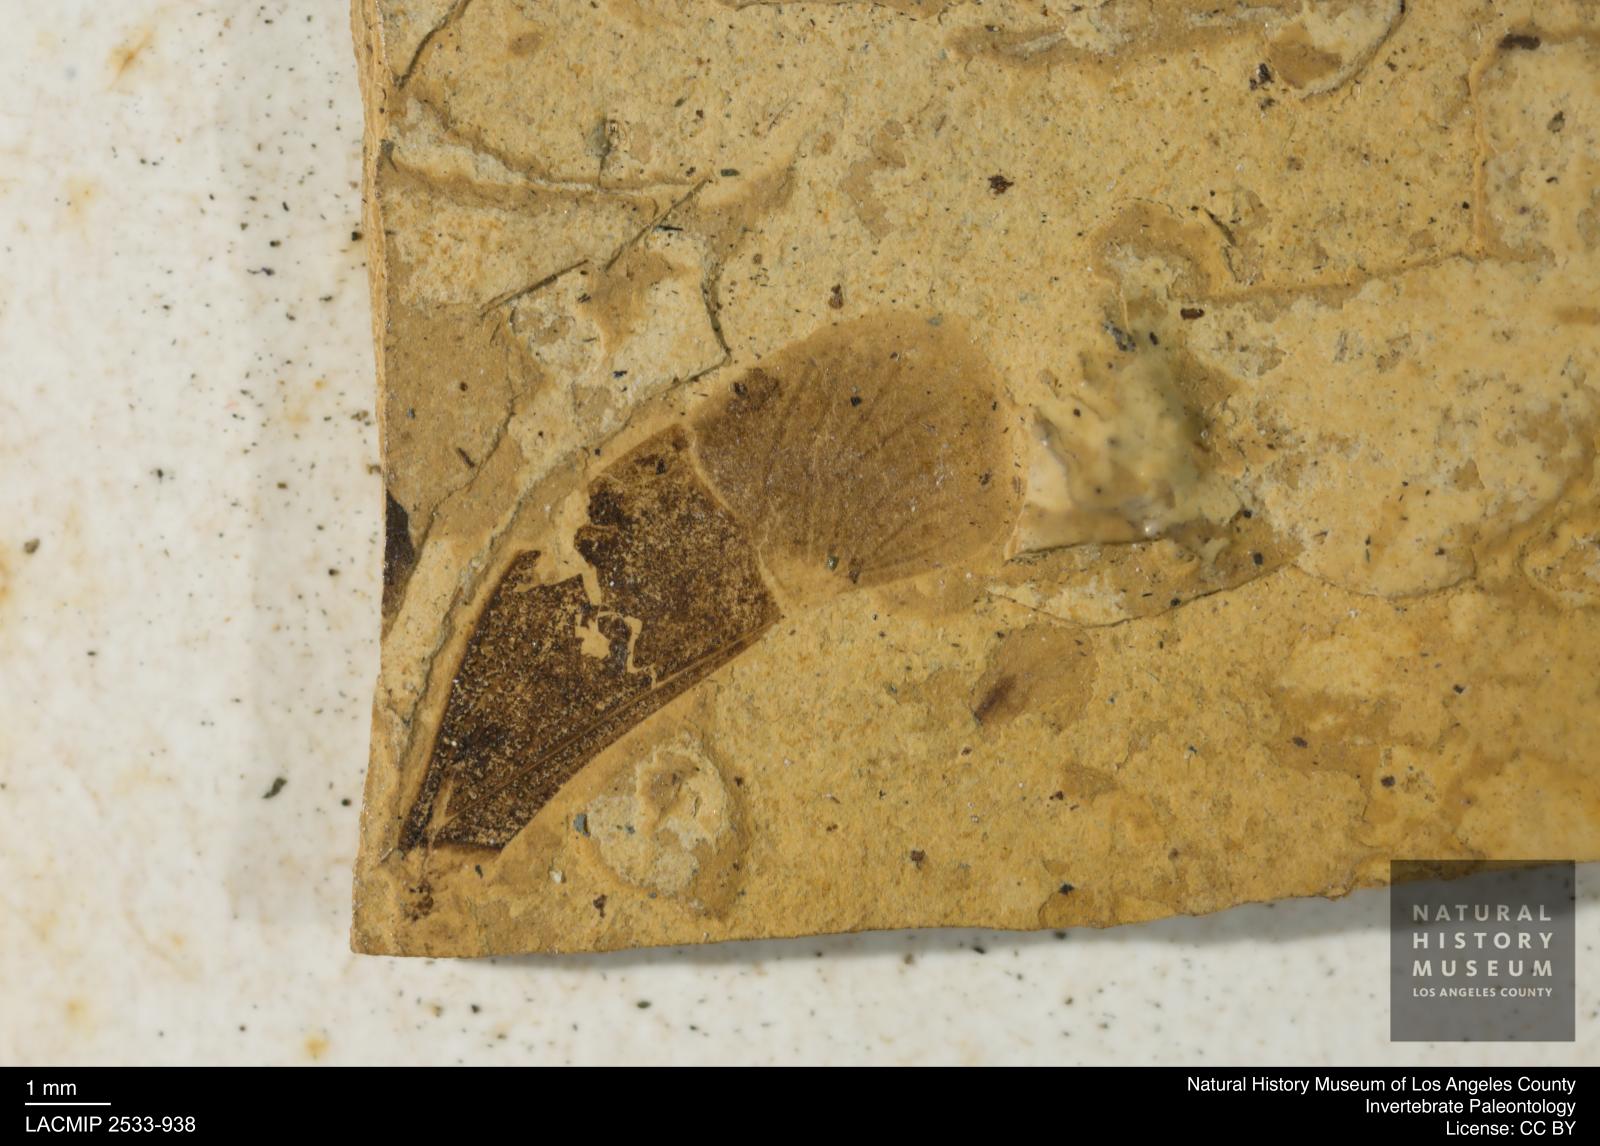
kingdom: Animalia
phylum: Arthropoda
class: Insecta
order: Hemiptera
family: Pentatomidae
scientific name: Pentatomidae
